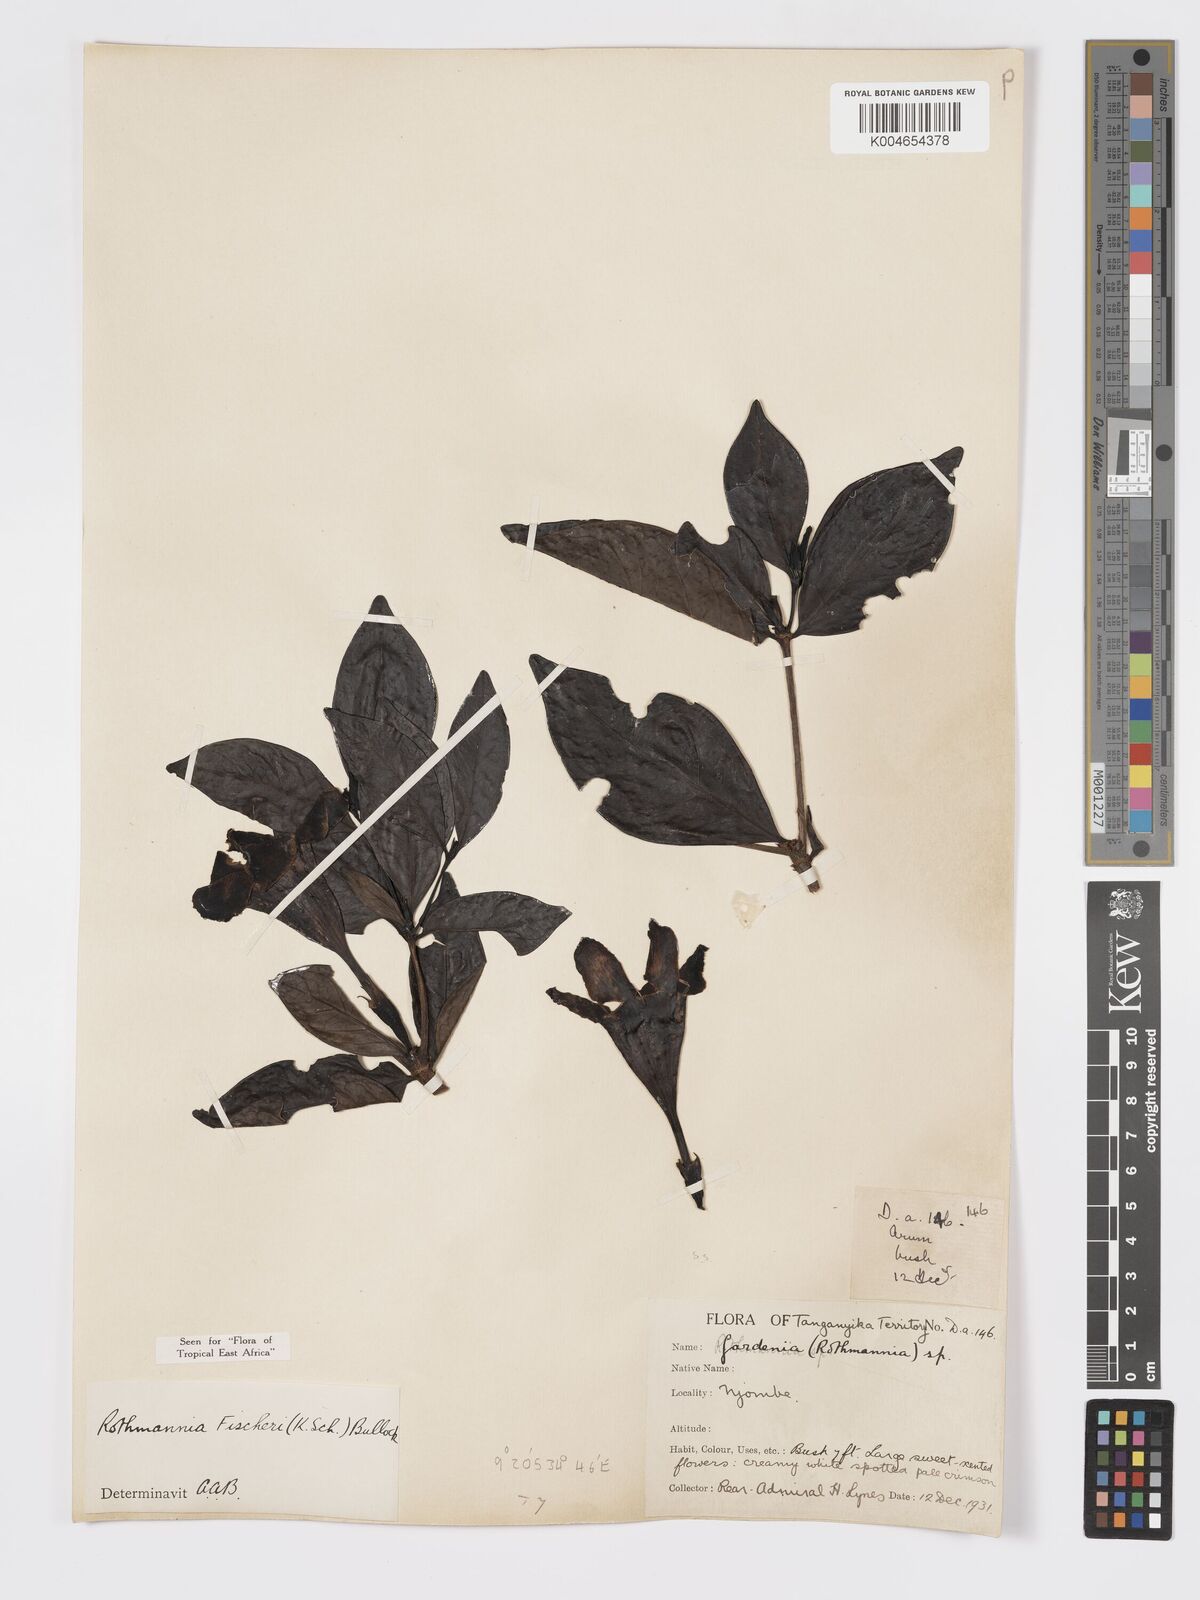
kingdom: Plantae
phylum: Tracheophyta
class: Magnoliopsida
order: Gentianales
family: Rubiaceae
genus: Rothmannia
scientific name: Rothmannia fischeri
